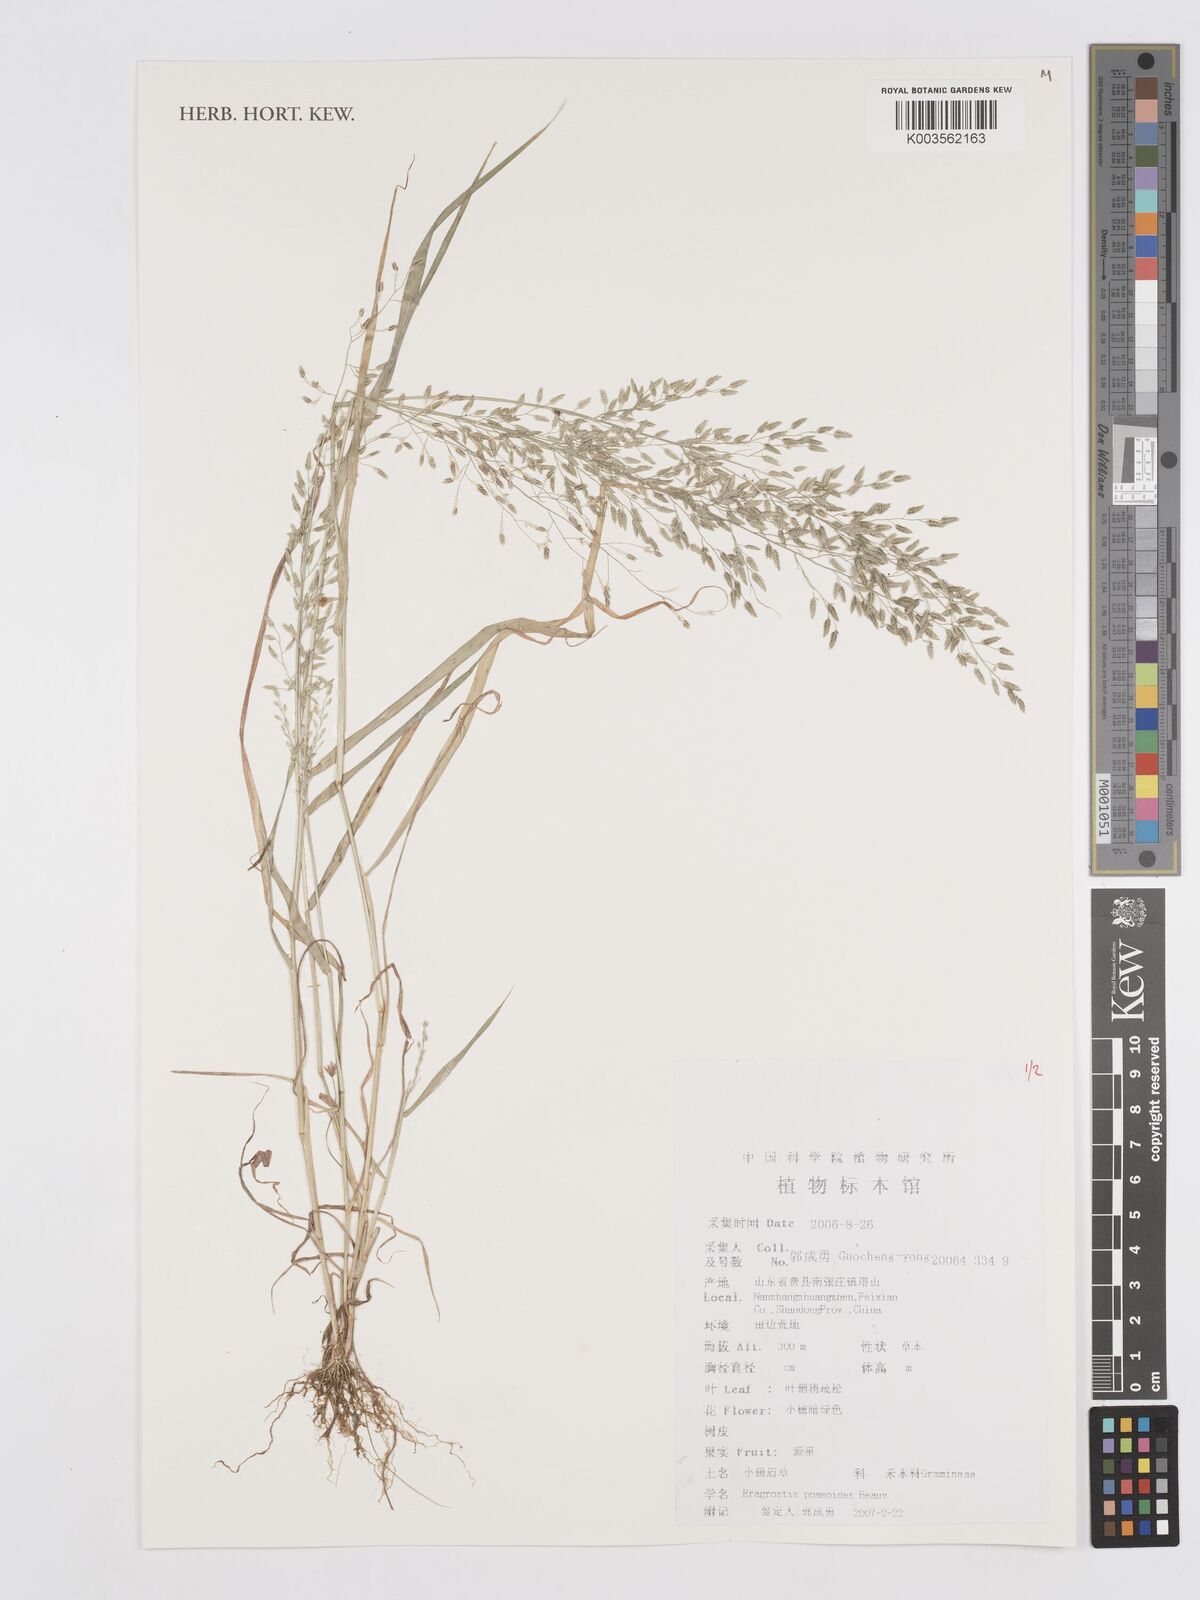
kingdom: Plantae
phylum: Tracheophyta
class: Liliopsida
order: Poales
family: Poaceae
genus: Eragrostis
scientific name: Eragrostis minor
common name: Small love-grass
